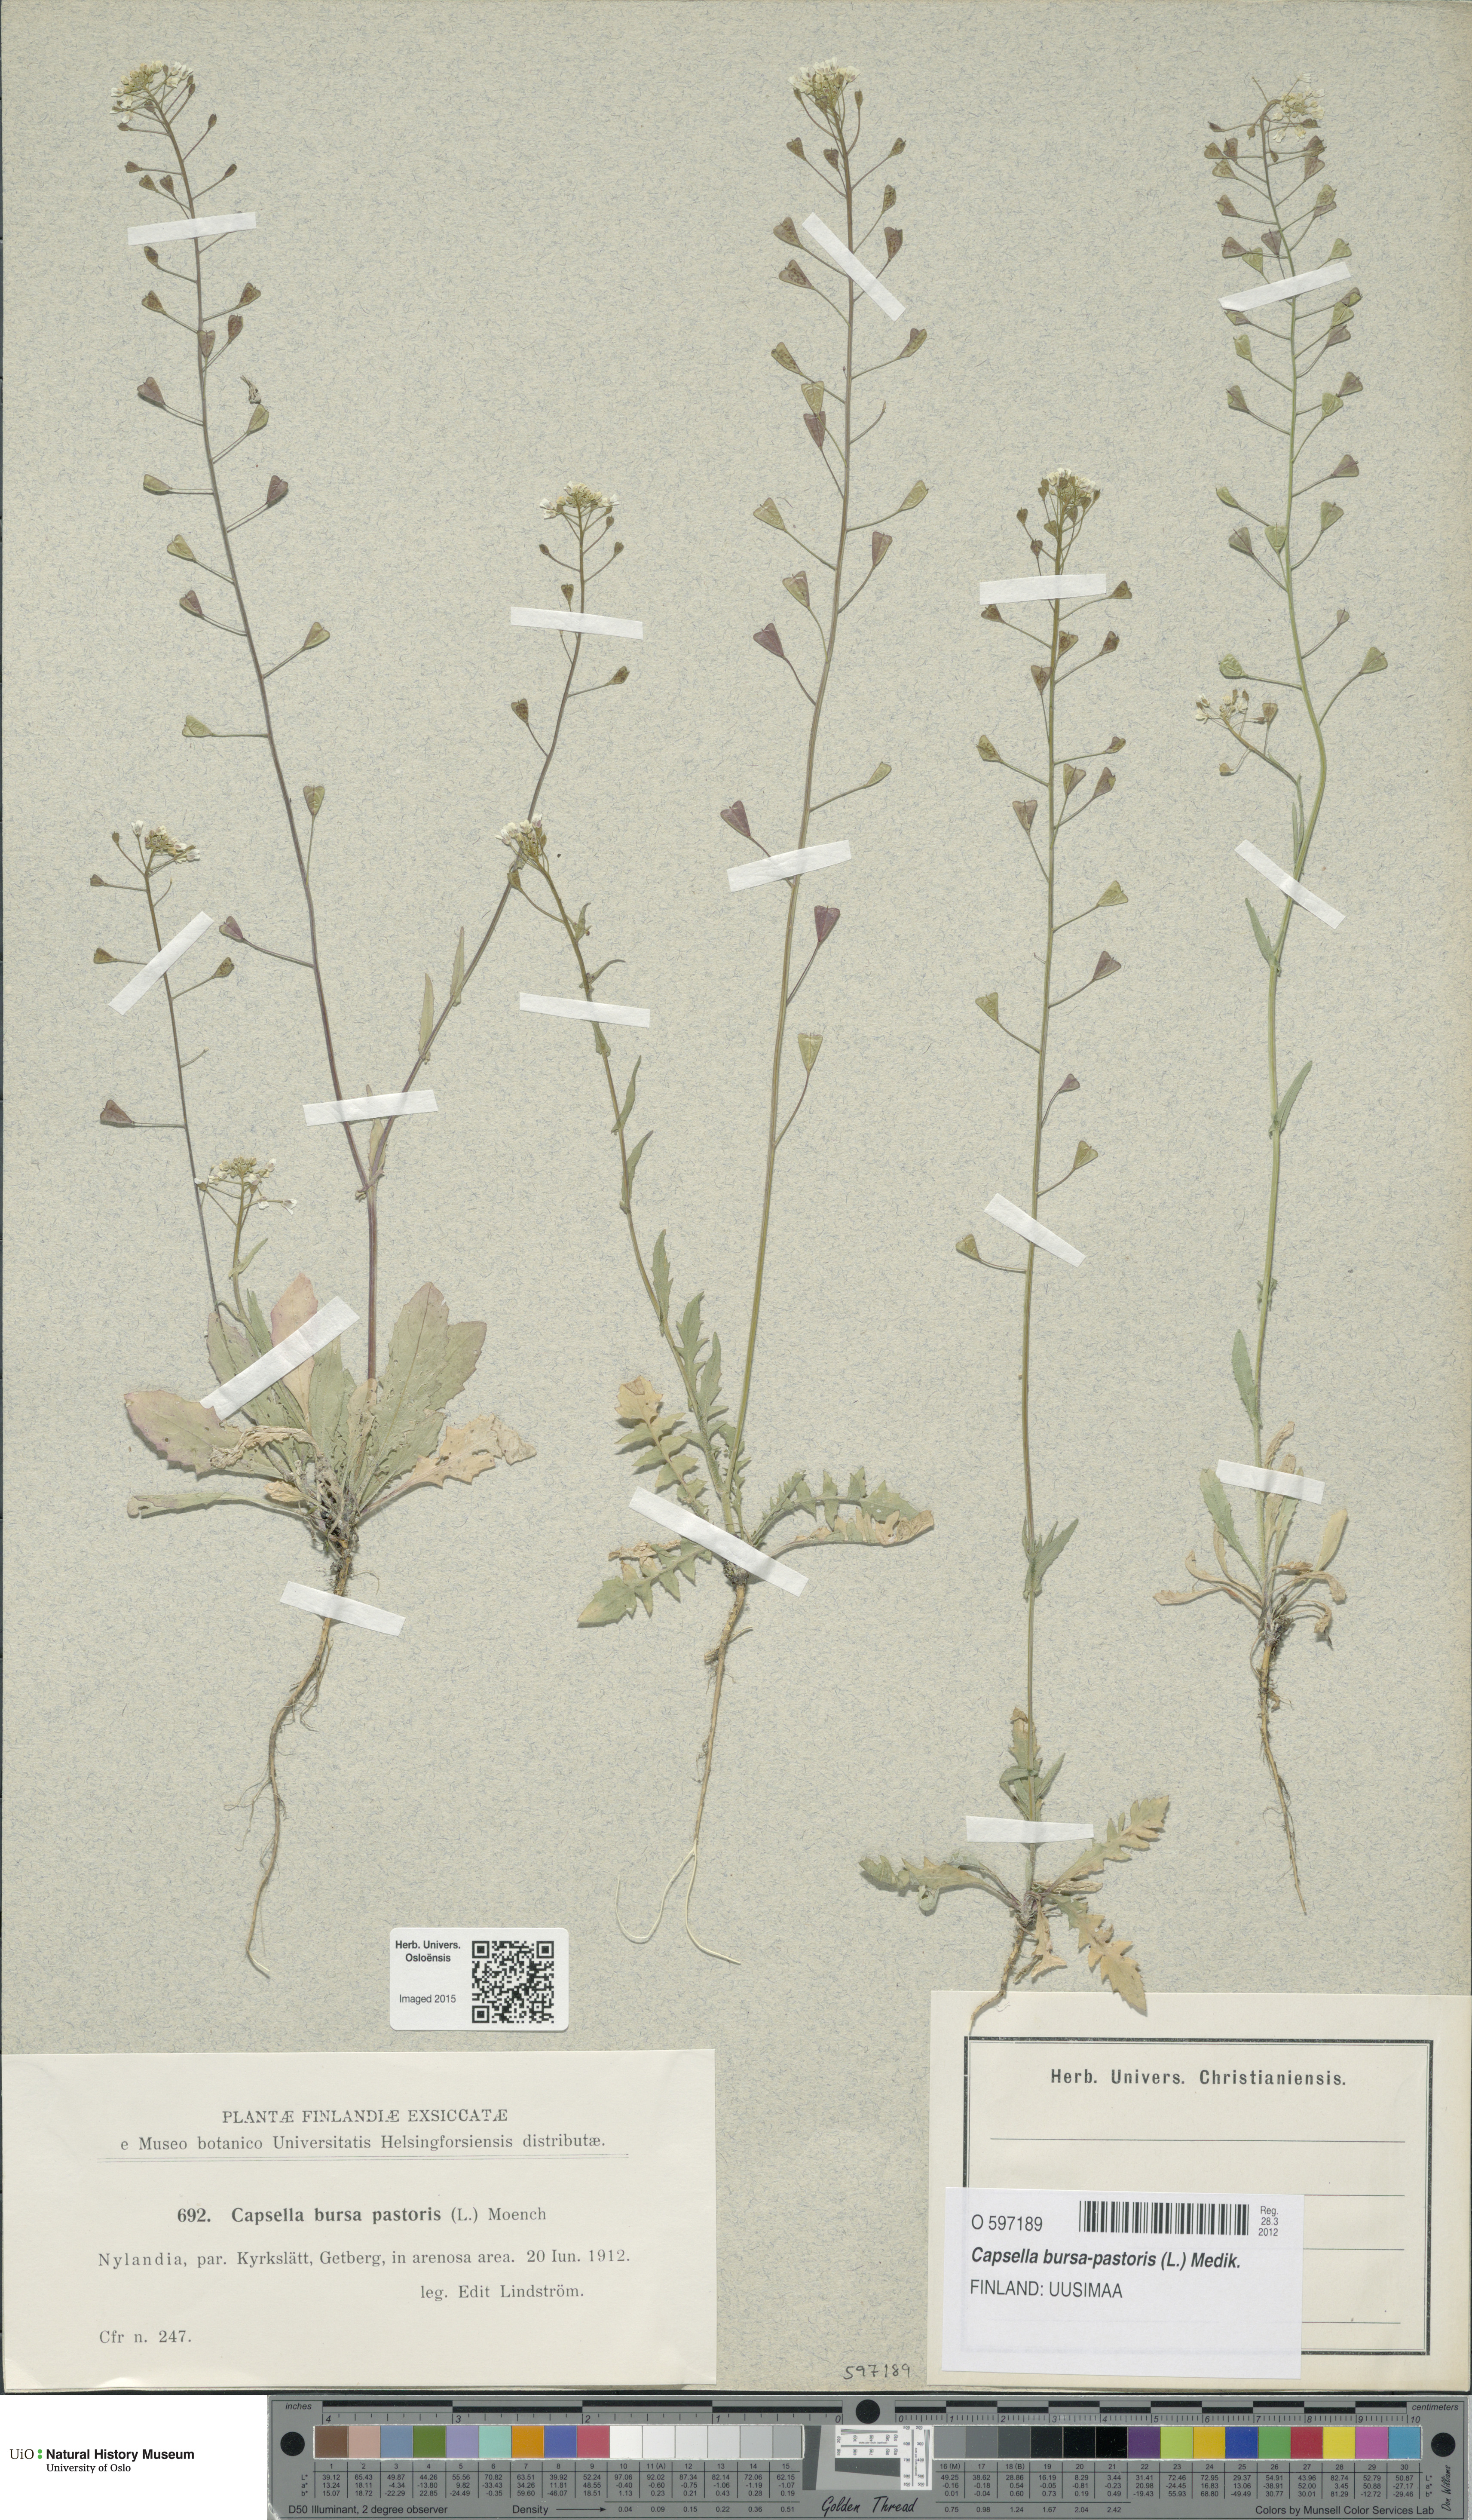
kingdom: Plantae
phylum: Tracheophyta
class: Magnoliopsida
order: Brassicales
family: Brassicaceae
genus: Capsella
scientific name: Capsella bursa-pastoris
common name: Shepherd's purse
